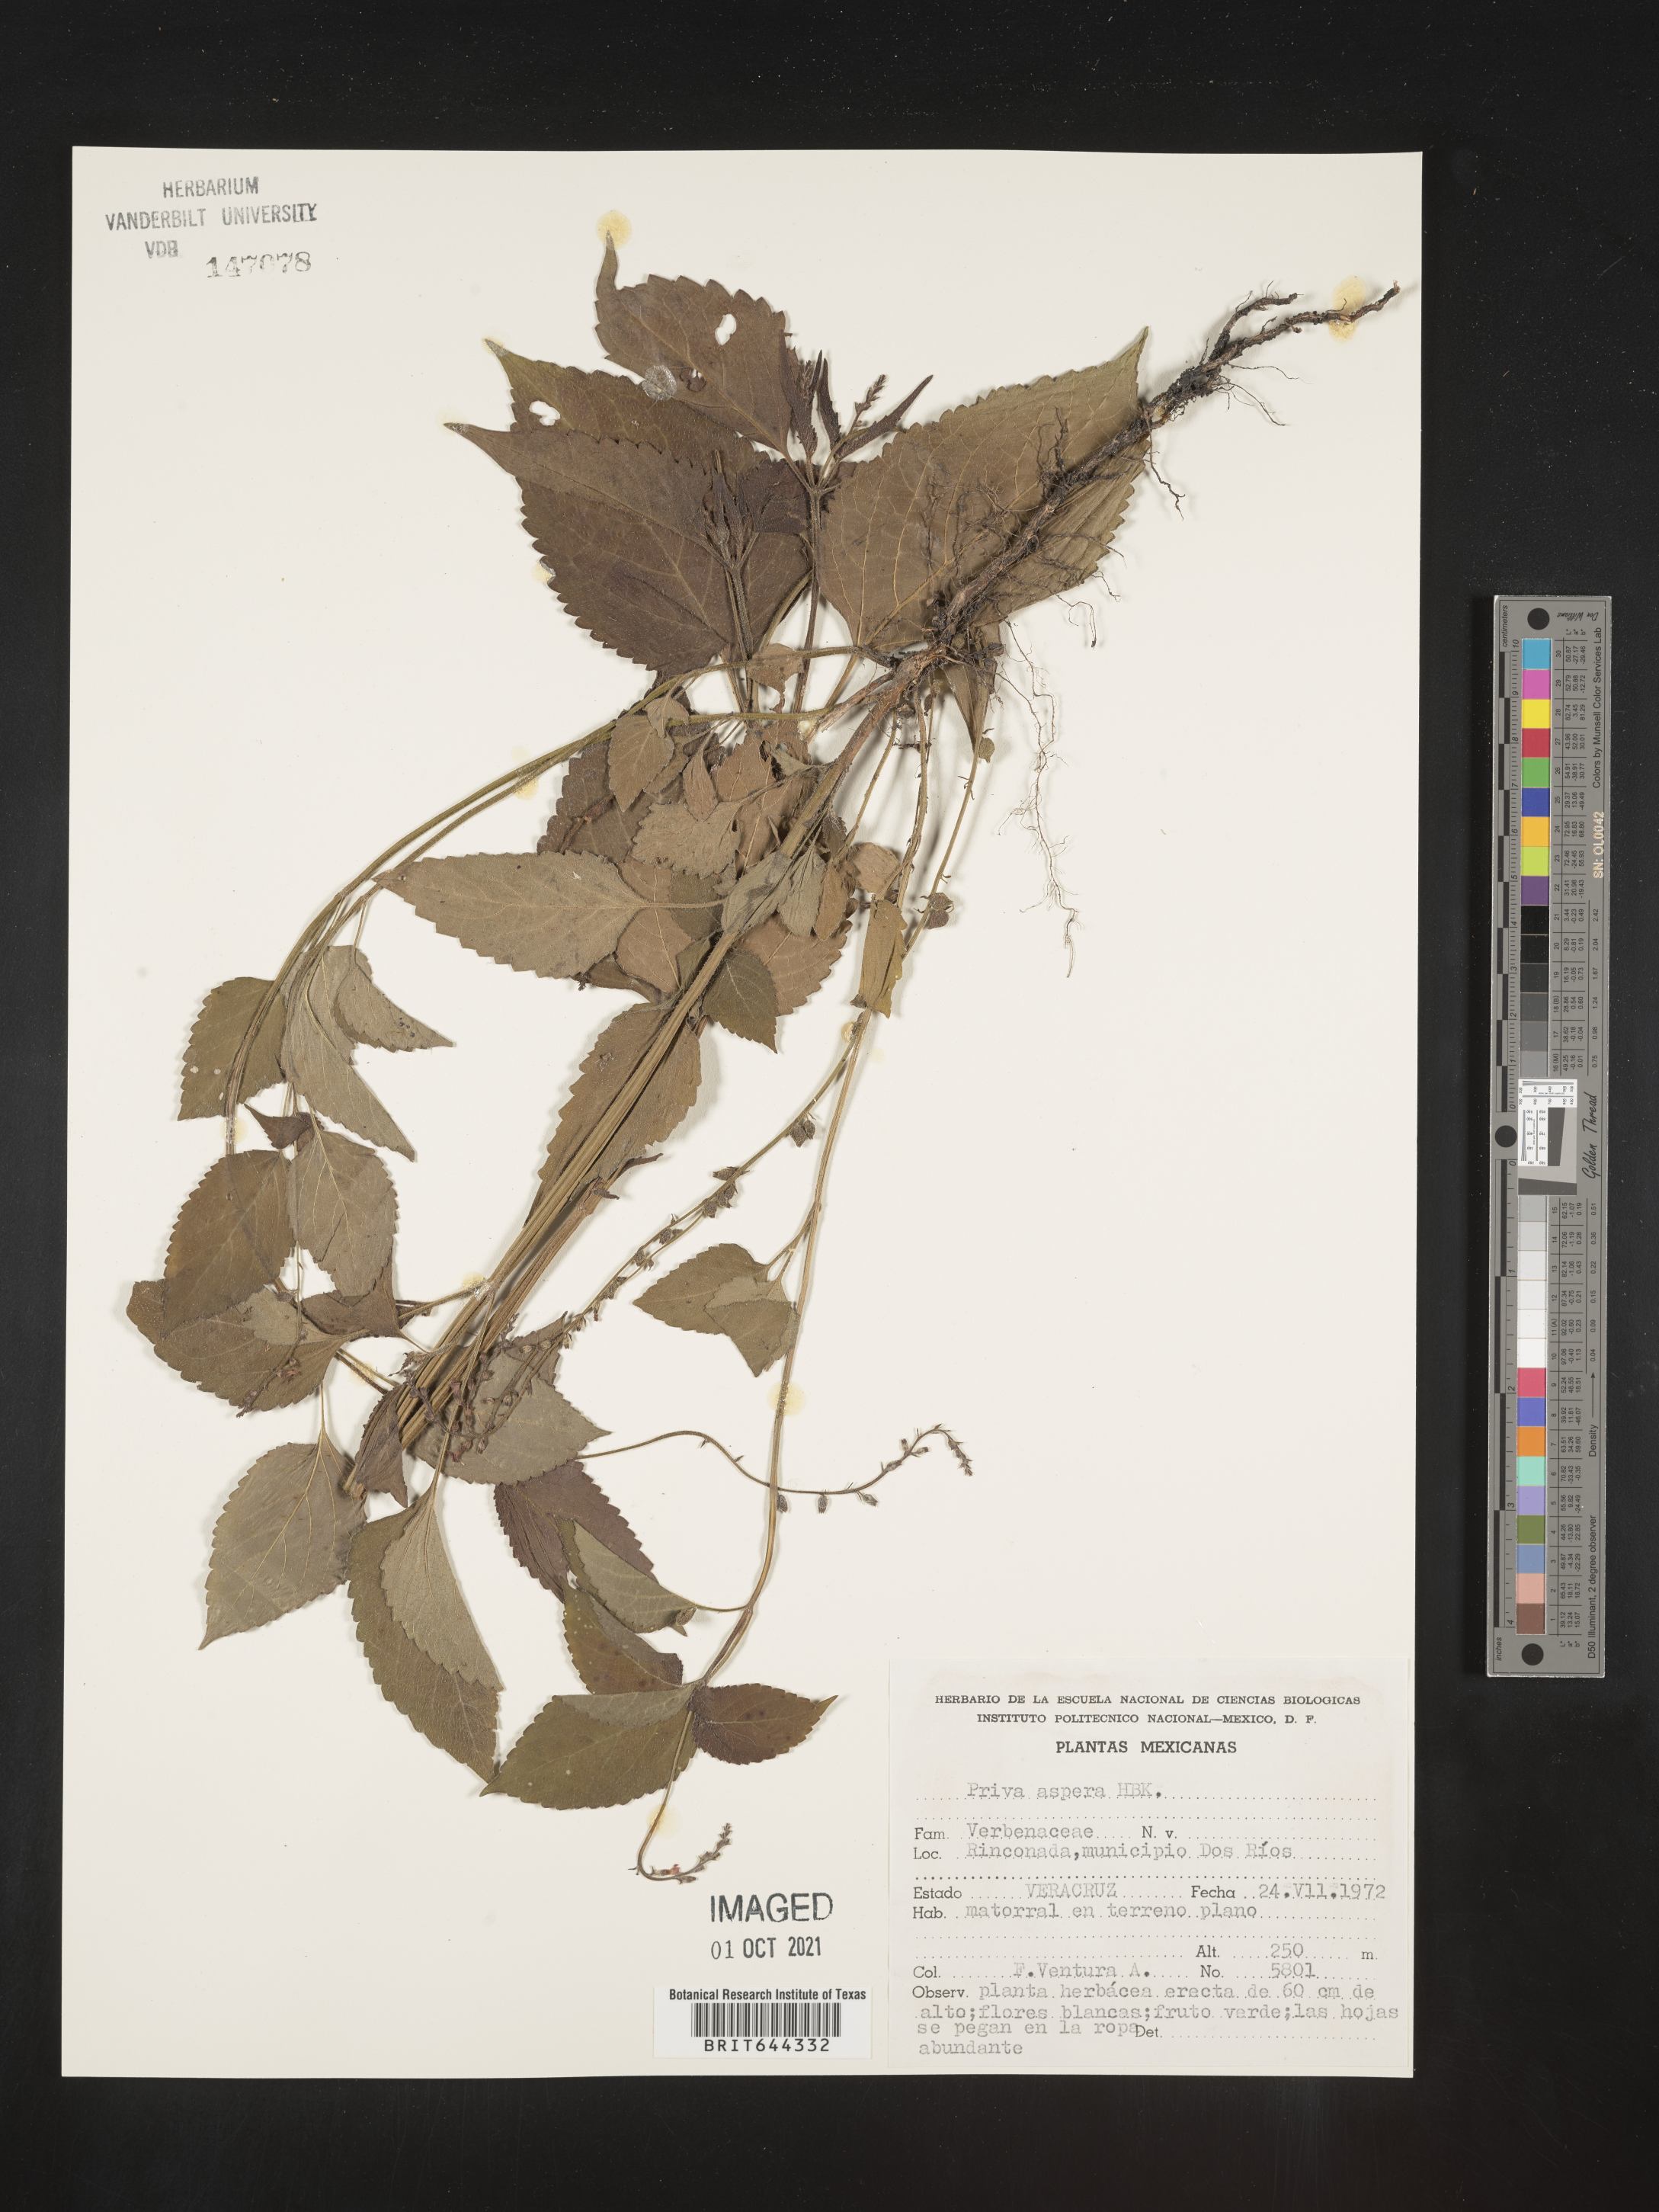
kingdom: Plantae
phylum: Tracheophyta
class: Magnoliopsida
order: Lamiales
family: Verbenaceae
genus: Priva
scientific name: Priva
